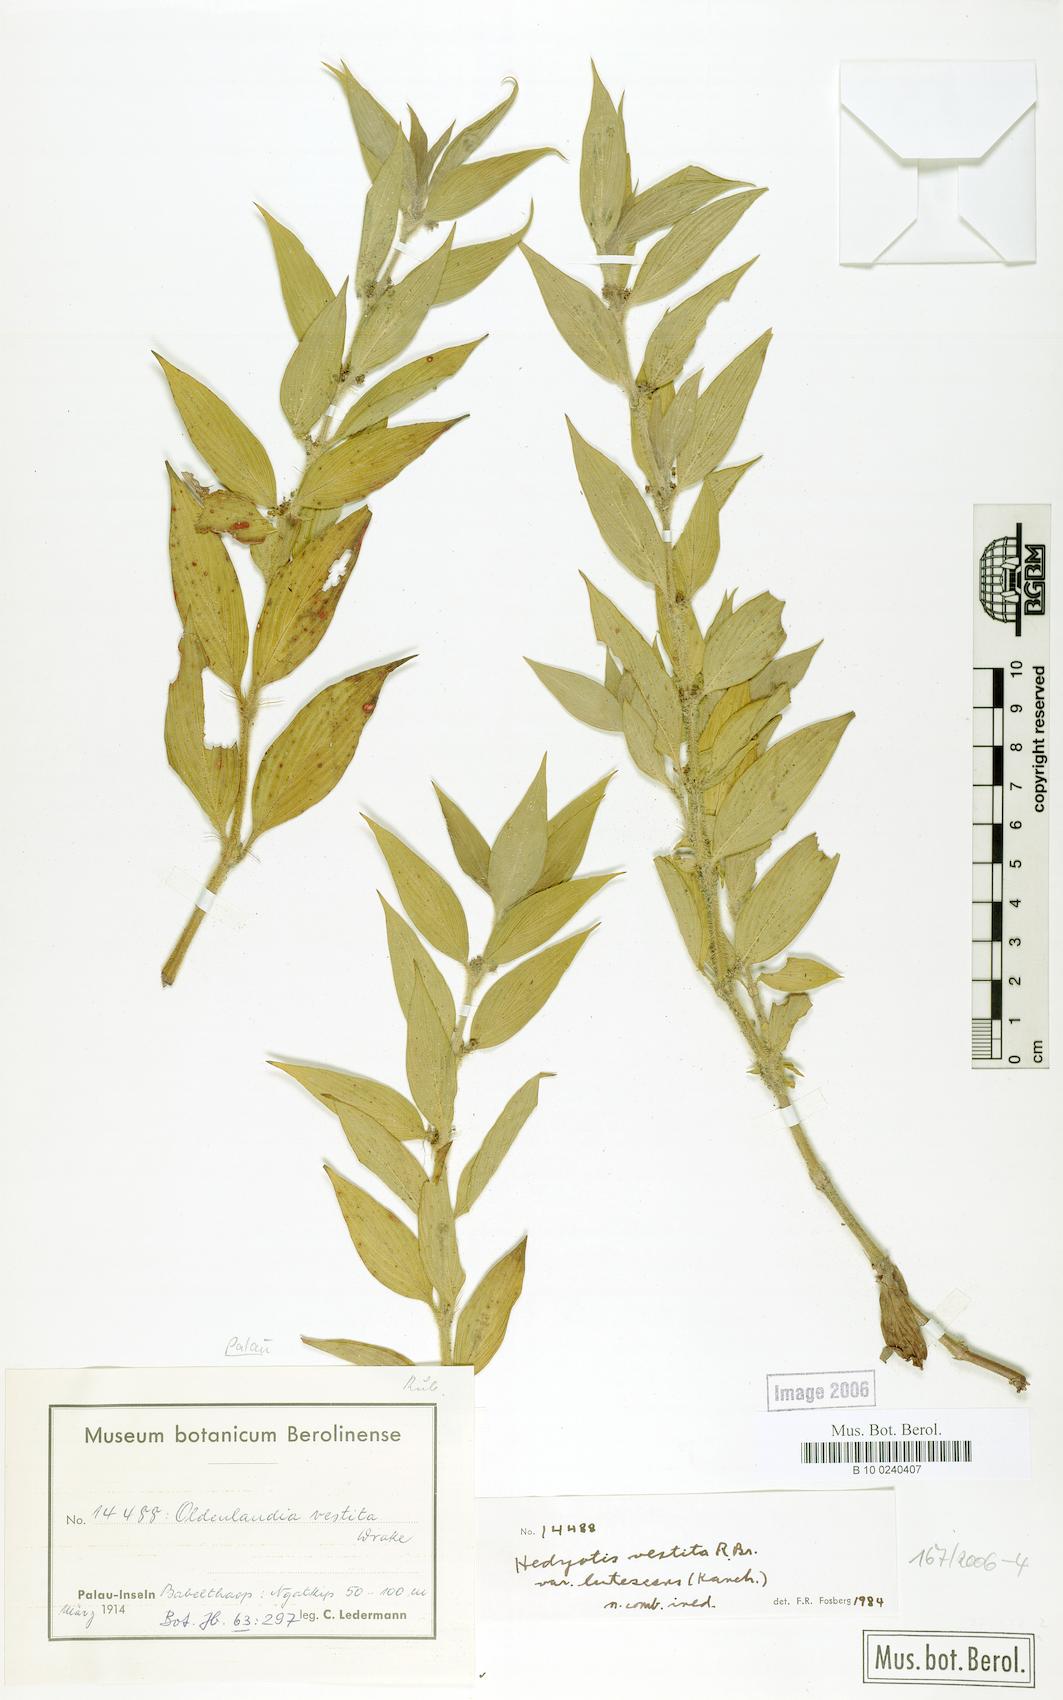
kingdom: Plantae
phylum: Tracheophyta
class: Magnoliopsida
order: Gentianales
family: Rubiaceae
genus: Hedyotis
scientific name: Hedyotis rigida
